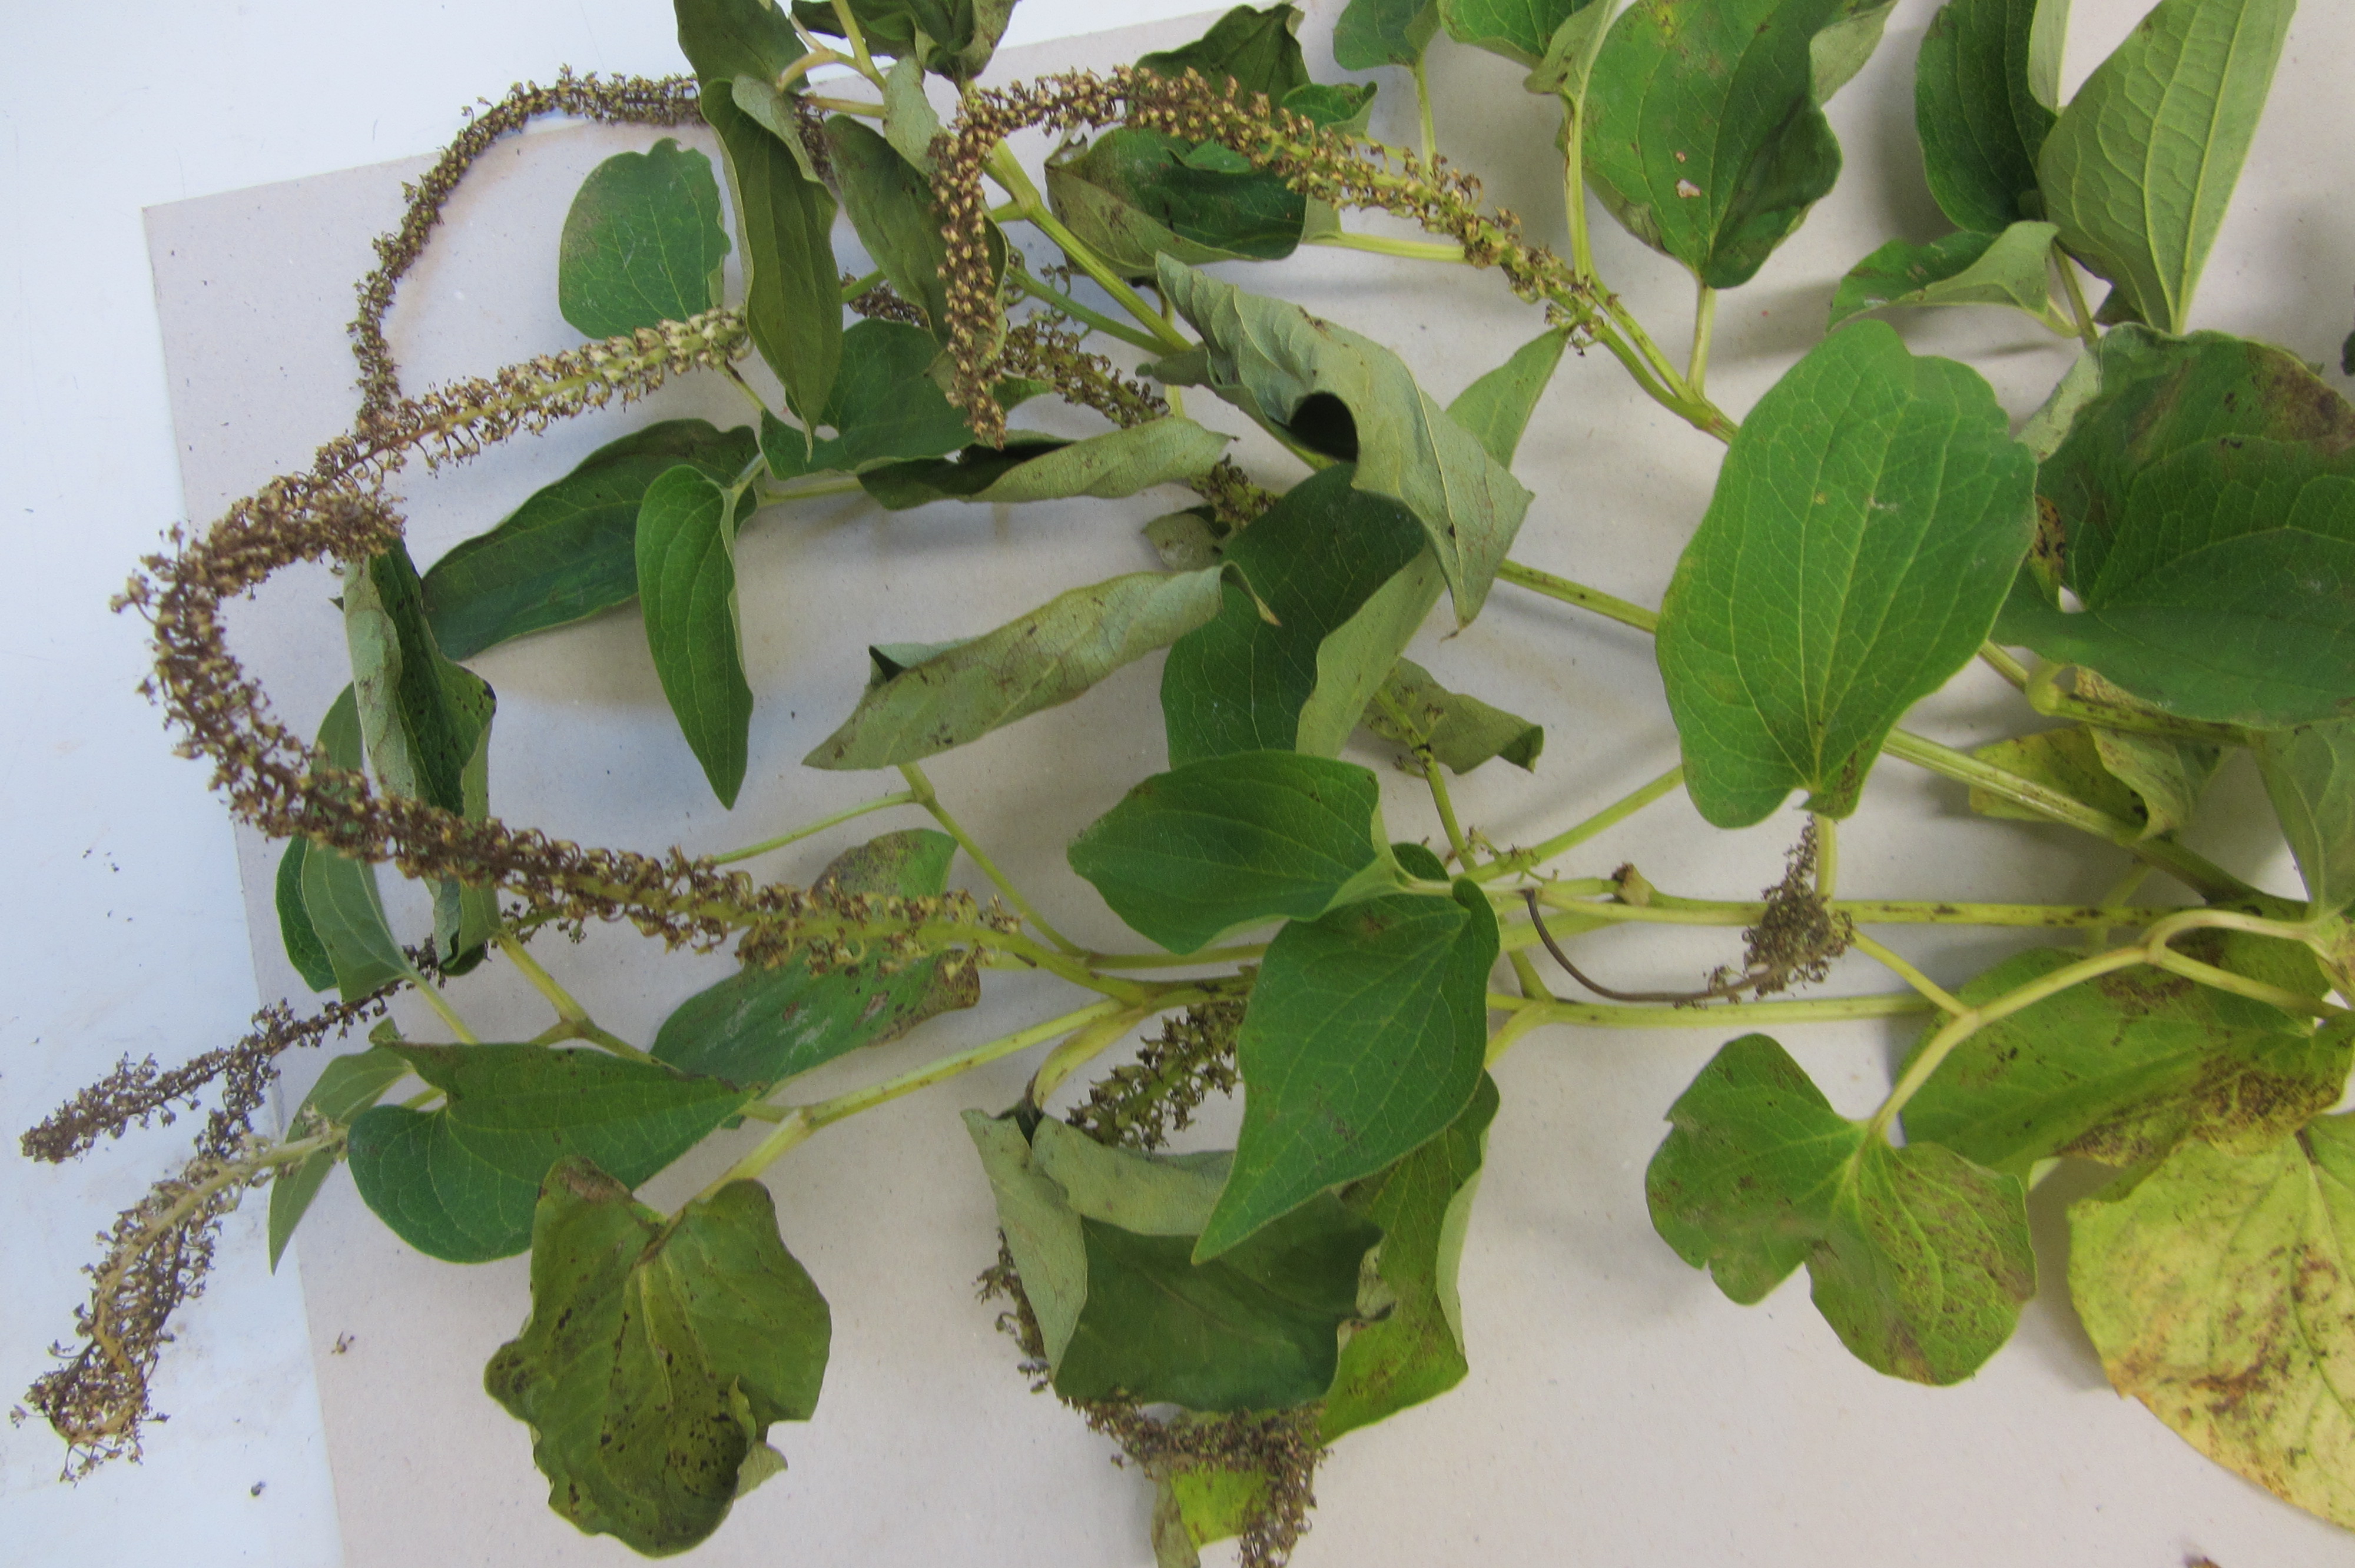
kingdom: Plantae
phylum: Tracheophyta
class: Magnoliopsida
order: Piperales
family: Saururaceae
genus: Saururus
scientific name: Saururus cernuus
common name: Lizard's-tail
